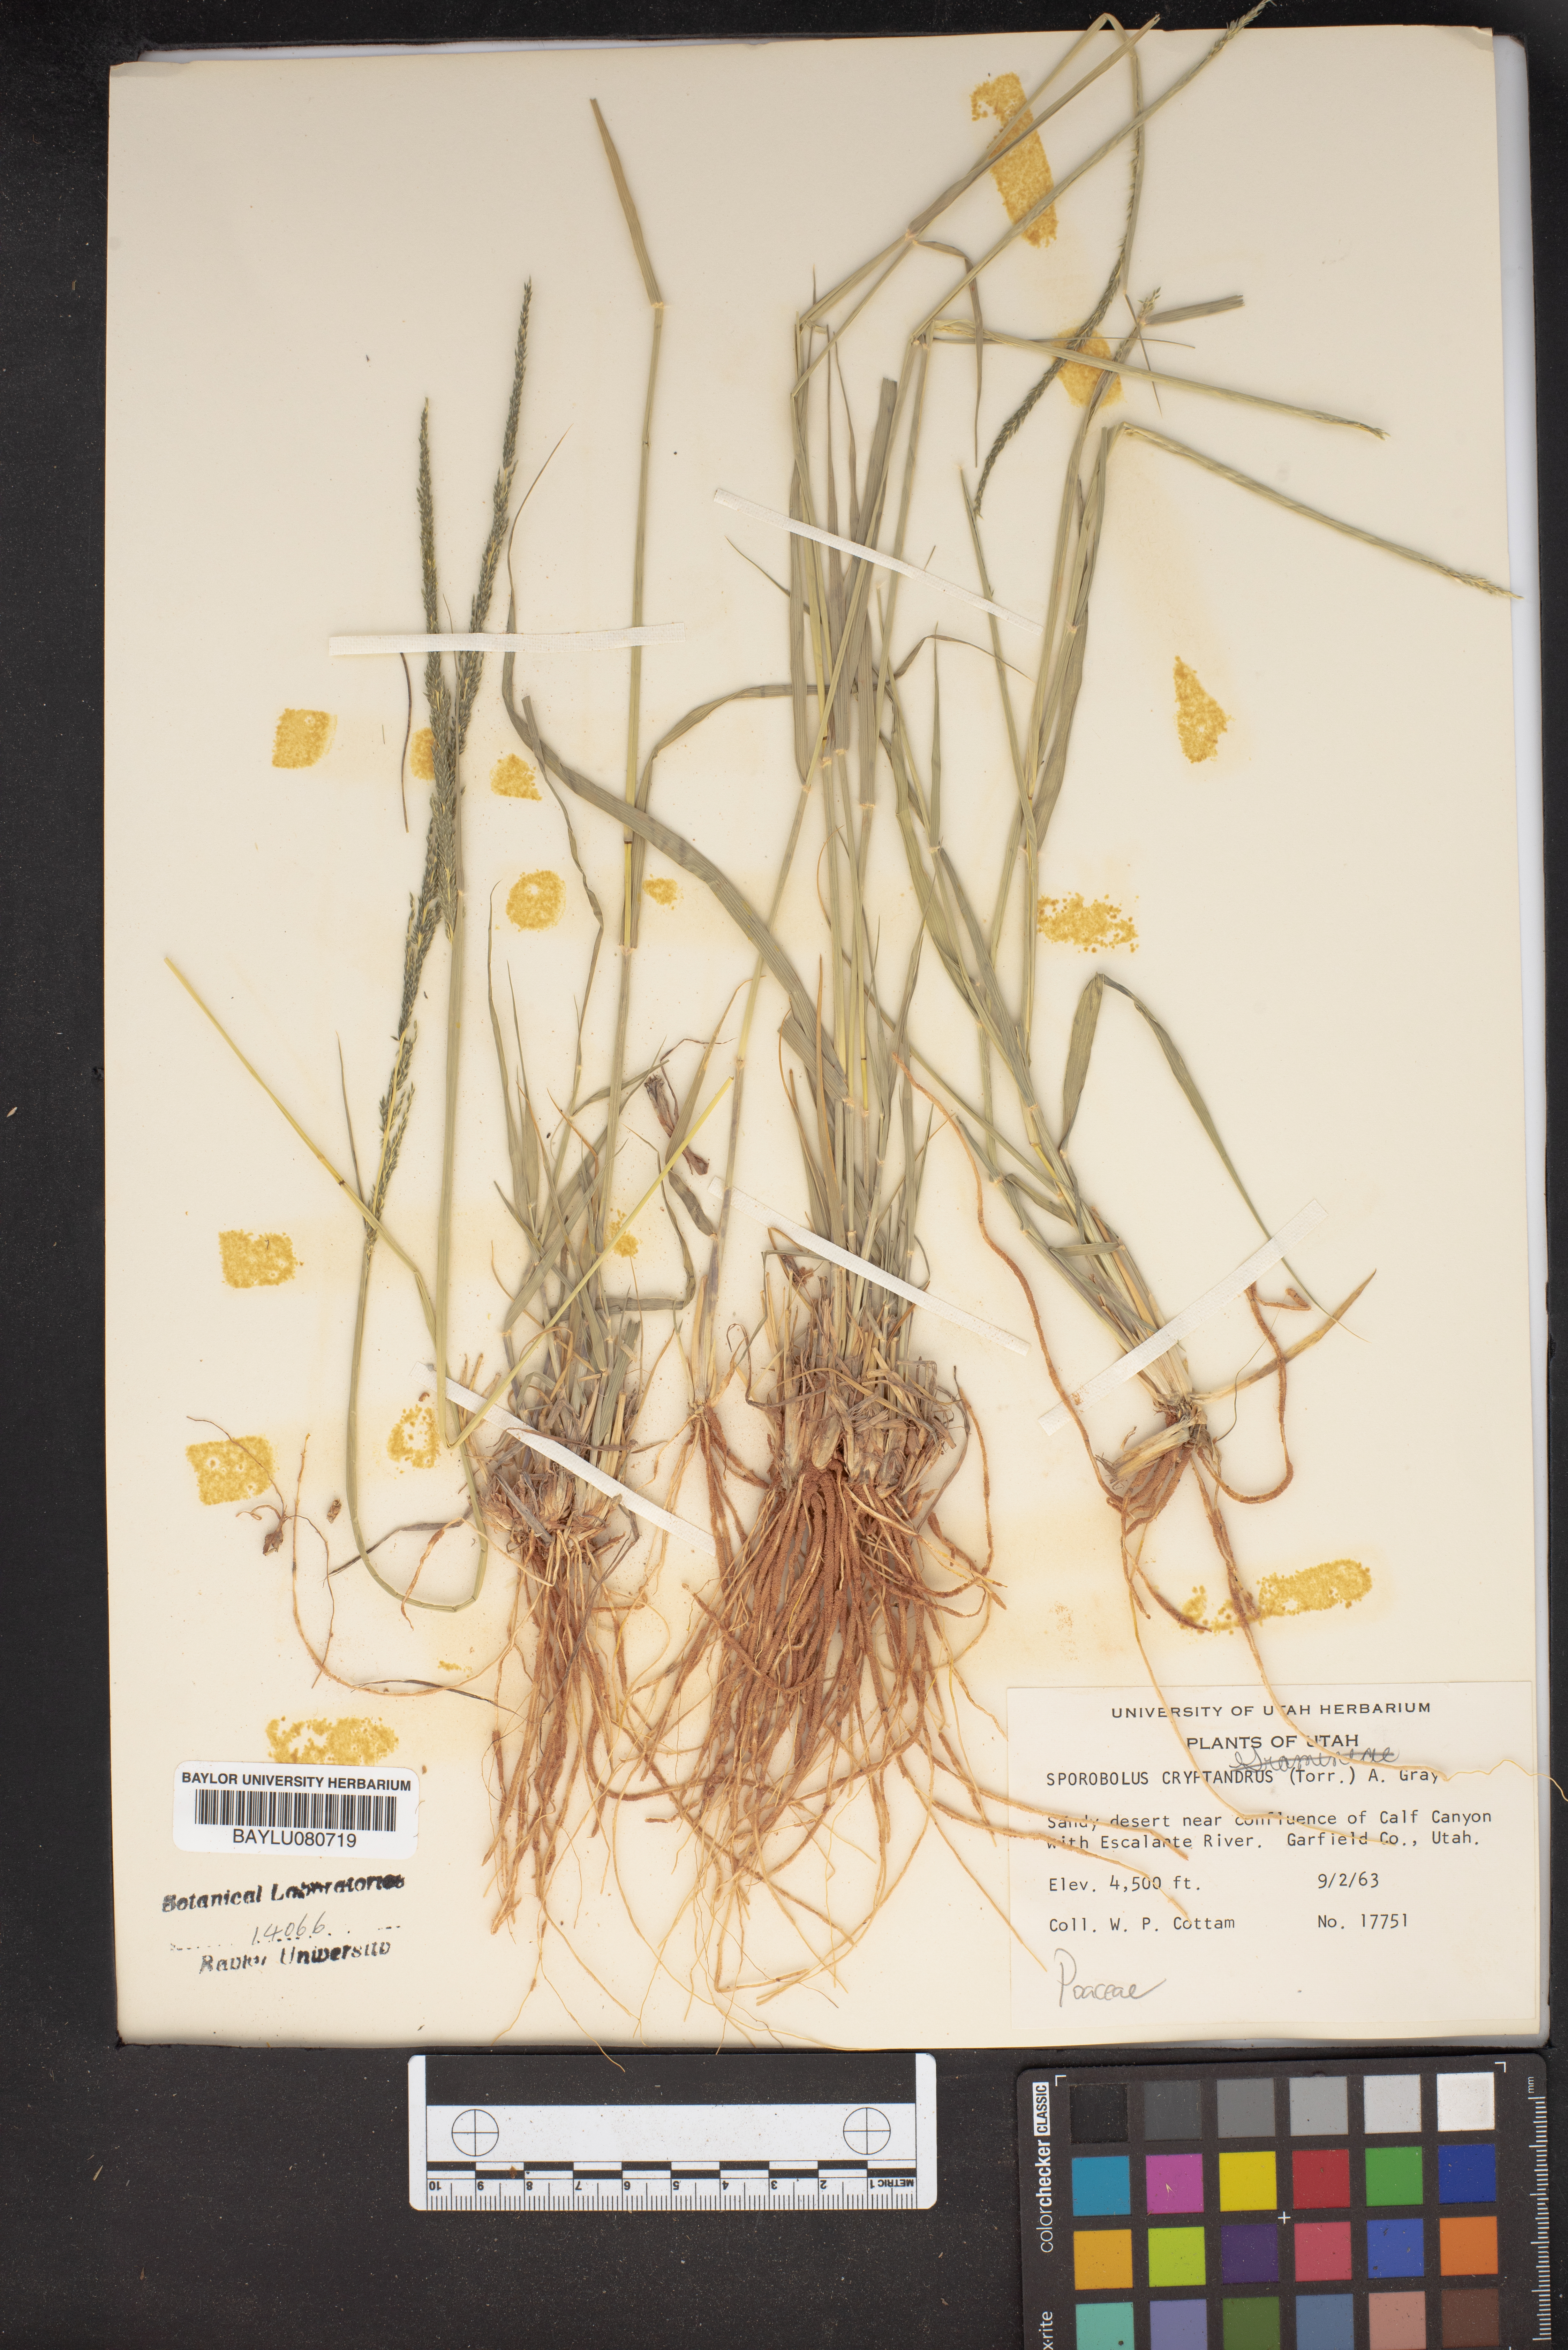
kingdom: Plantae
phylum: Tracheophyta
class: Liliopsida
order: Poales
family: Poaceae
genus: Sporobolus
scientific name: Sporobolus cryptandrus
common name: Sand dropseed
